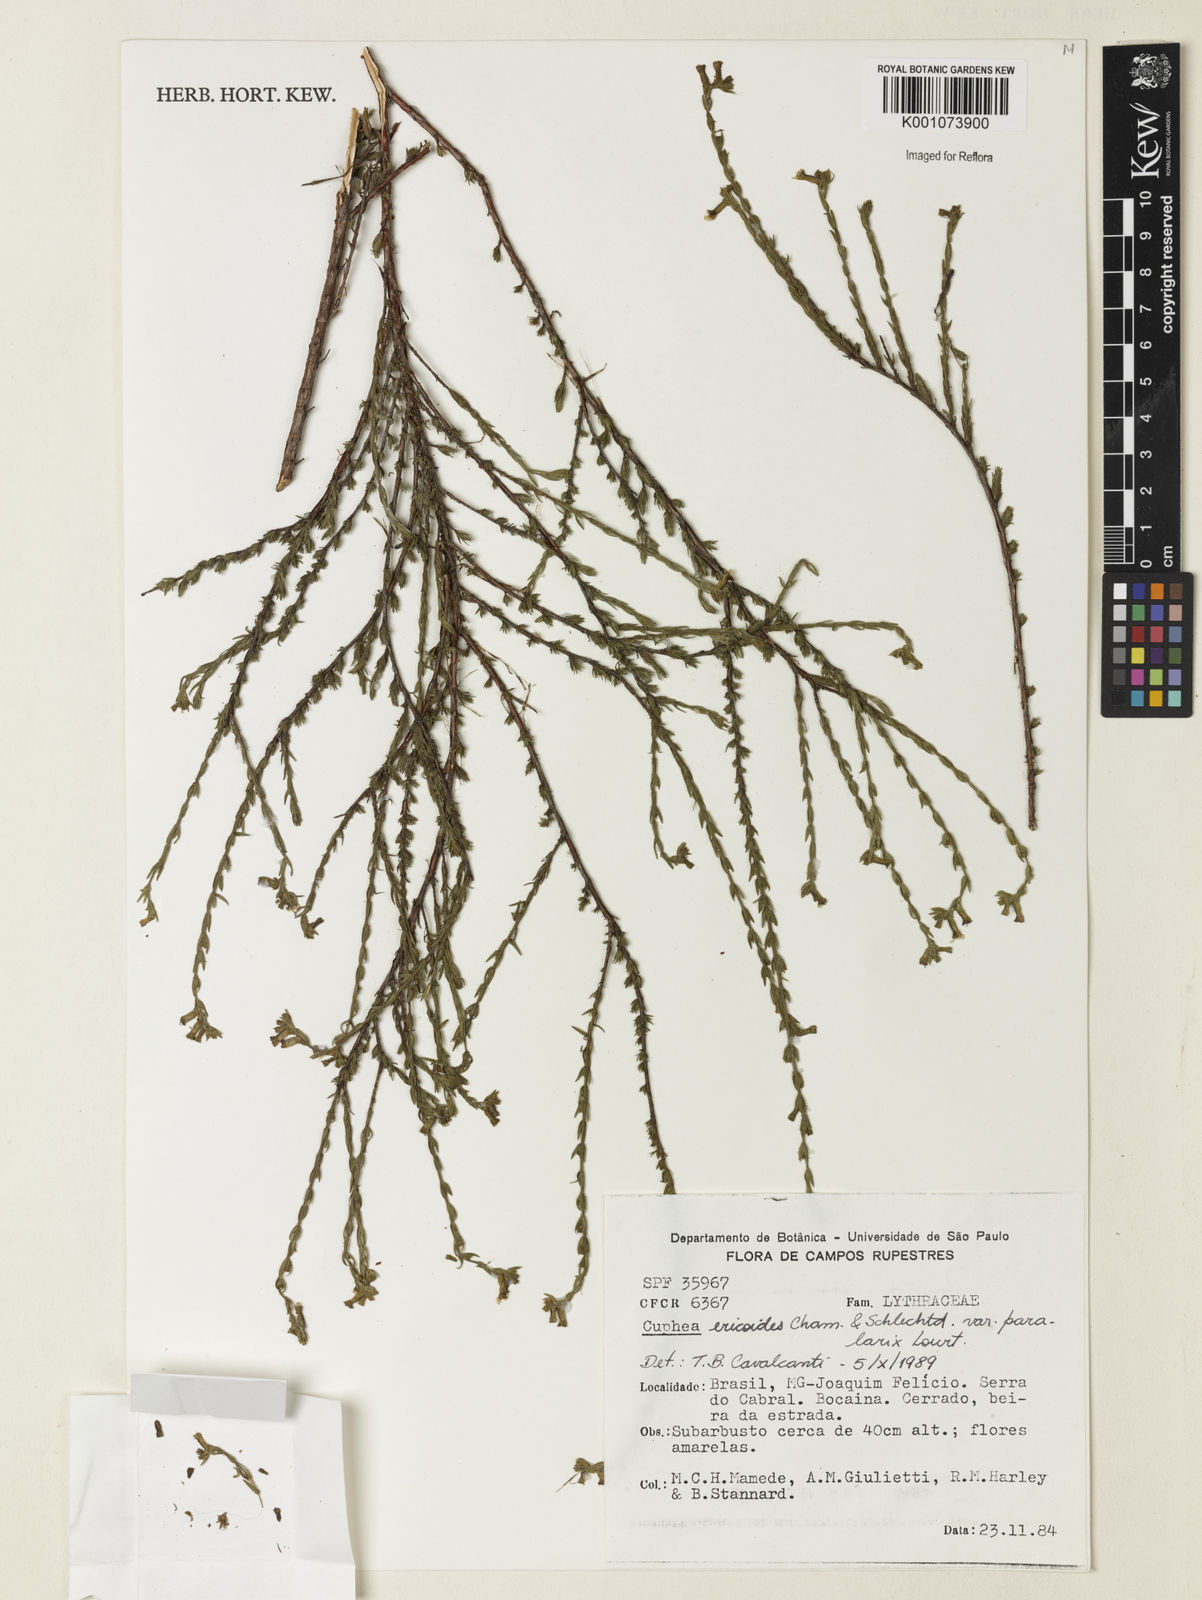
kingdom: Plantae
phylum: Tracheophyta
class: Magnoliopsida
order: Myrtales
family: Lythraceae
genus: Cuphea
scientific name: Cuphea paralarix
